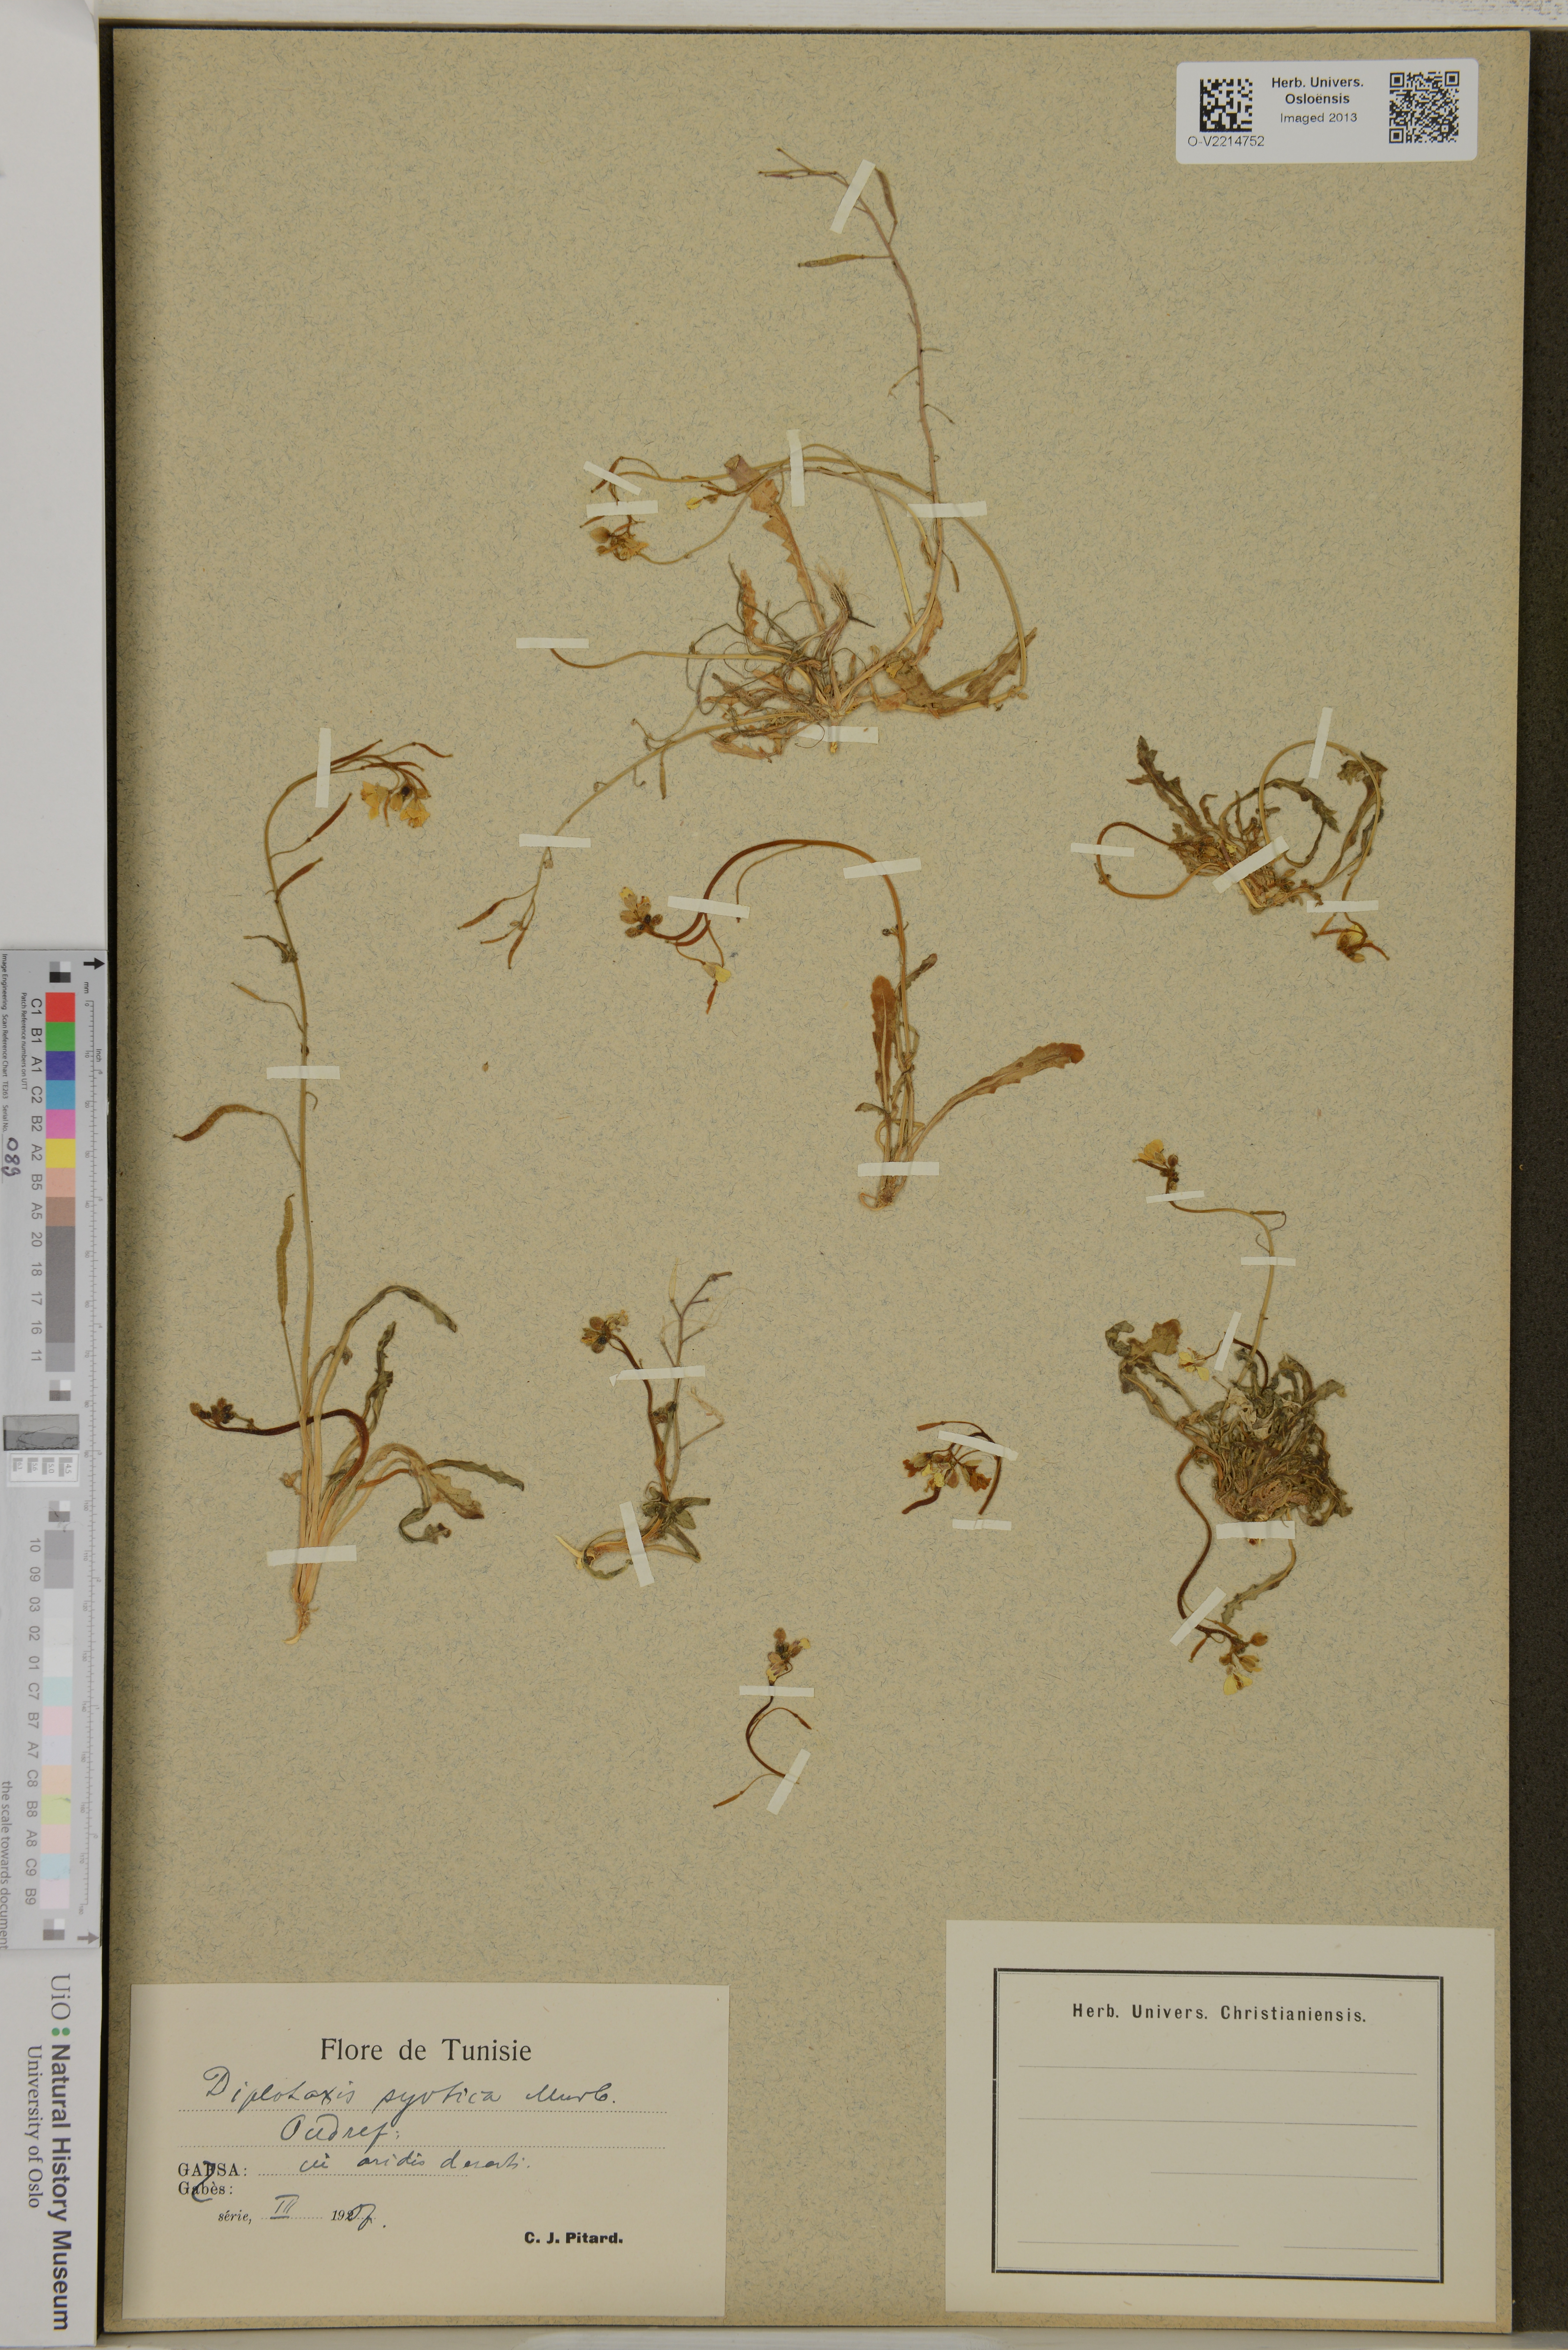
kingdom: Plantae
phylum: Tracheophyta
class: Magnoliopsida
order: Brassicales
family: Brassicaceae
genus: Diplotaxis
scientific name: Diplotaxis syrtica
